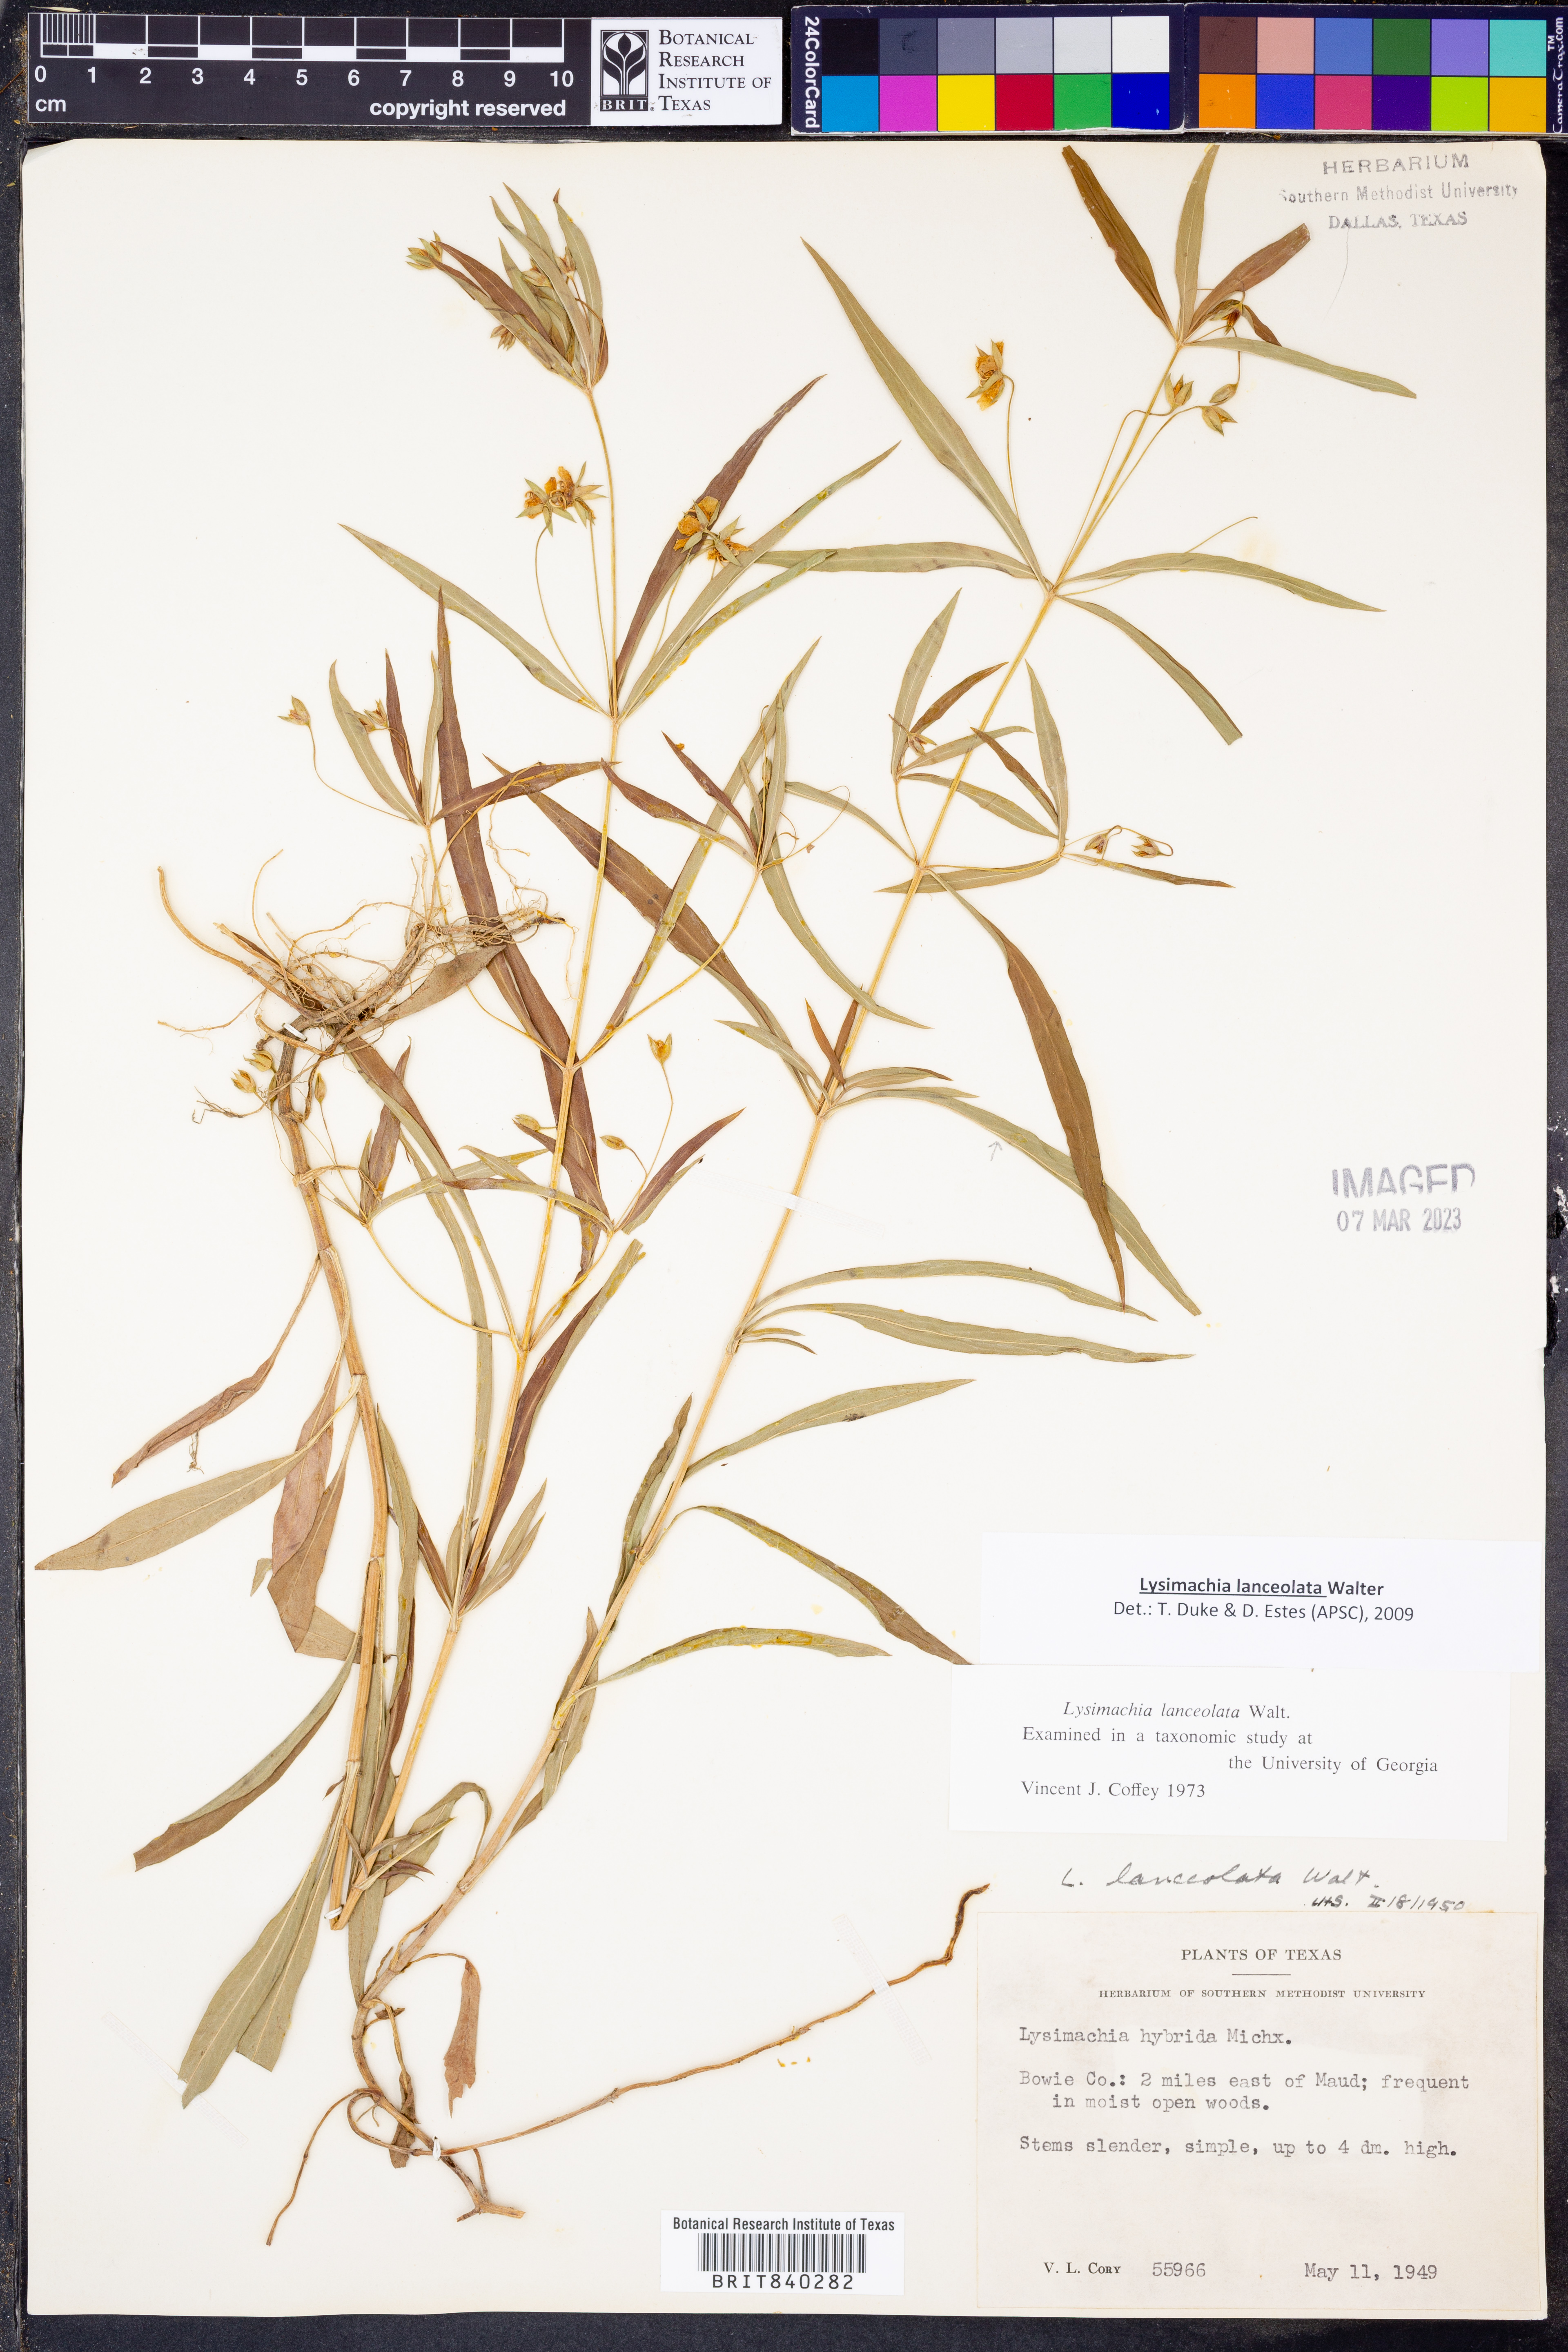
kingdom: Plantae
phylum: Tracheophyta
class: Magnoliopsida
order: Ericales
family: Primulaceae
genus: Lysimachia
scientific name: Lysimachia lanceolata
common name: Lance-leaved loosestrife
